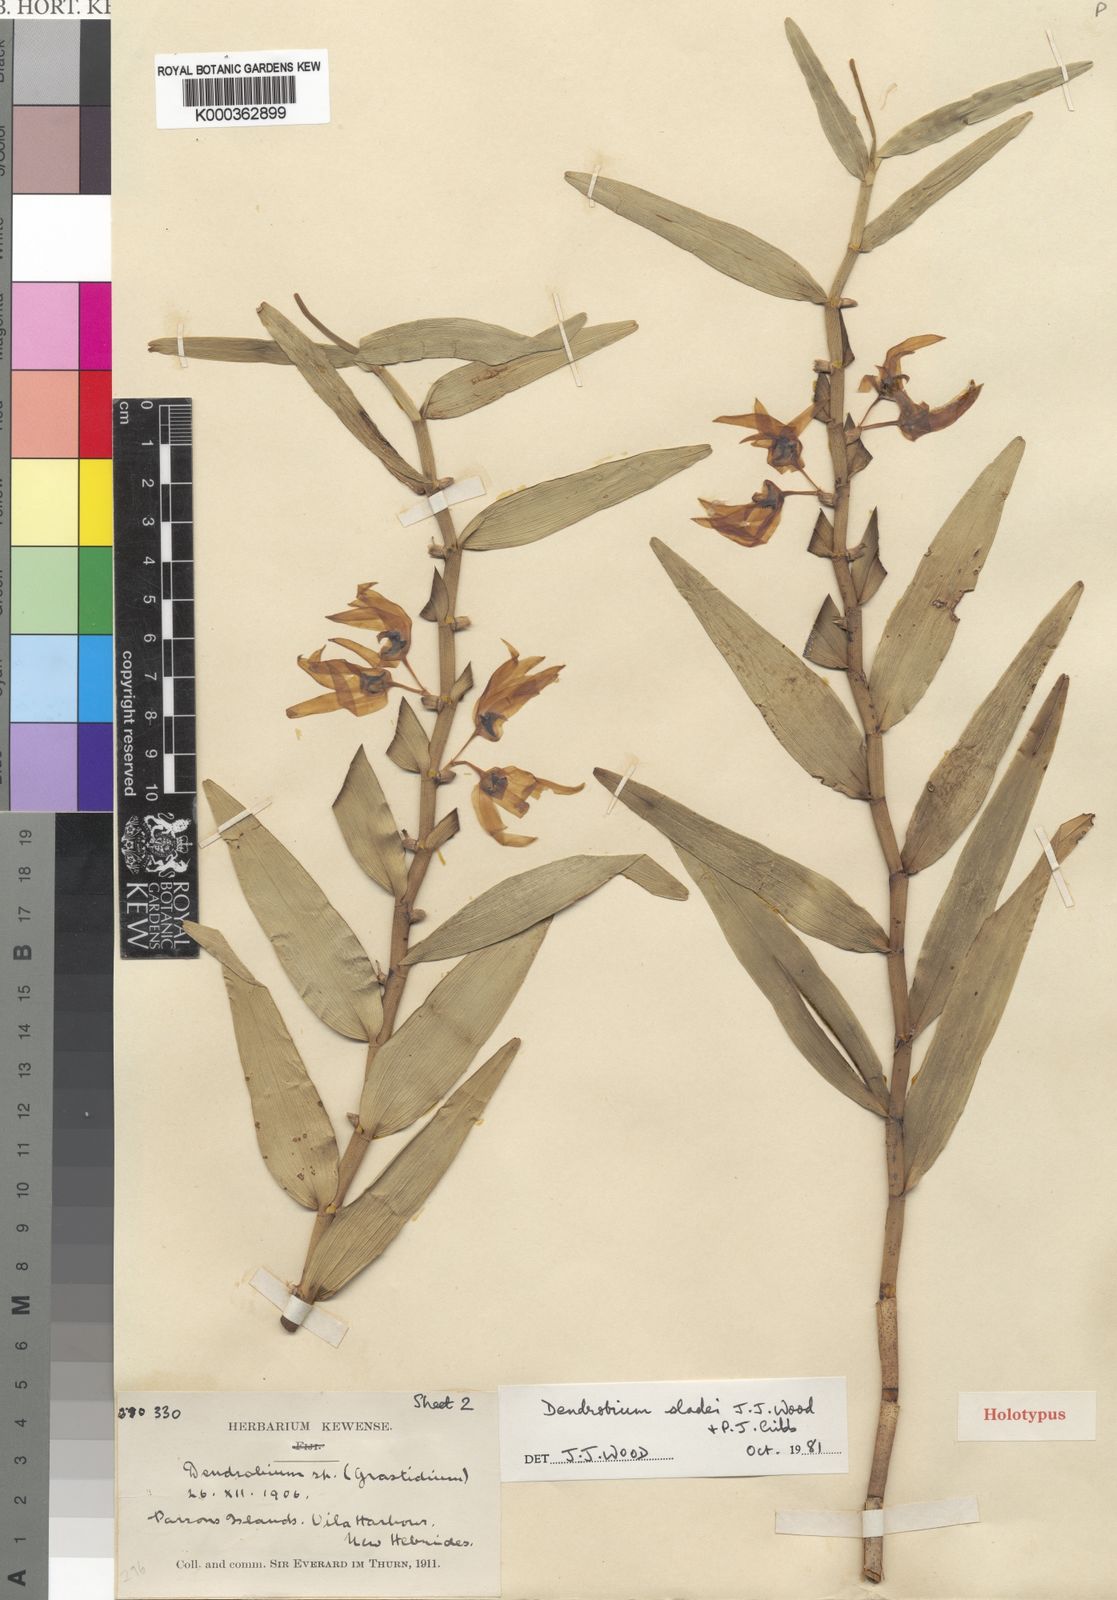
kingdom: Plantae
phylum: Tracheophyta
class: Liliopsida
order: Asparagales
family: Orchidaceae
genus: Dendrobium
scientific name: Dendrobium sladei
